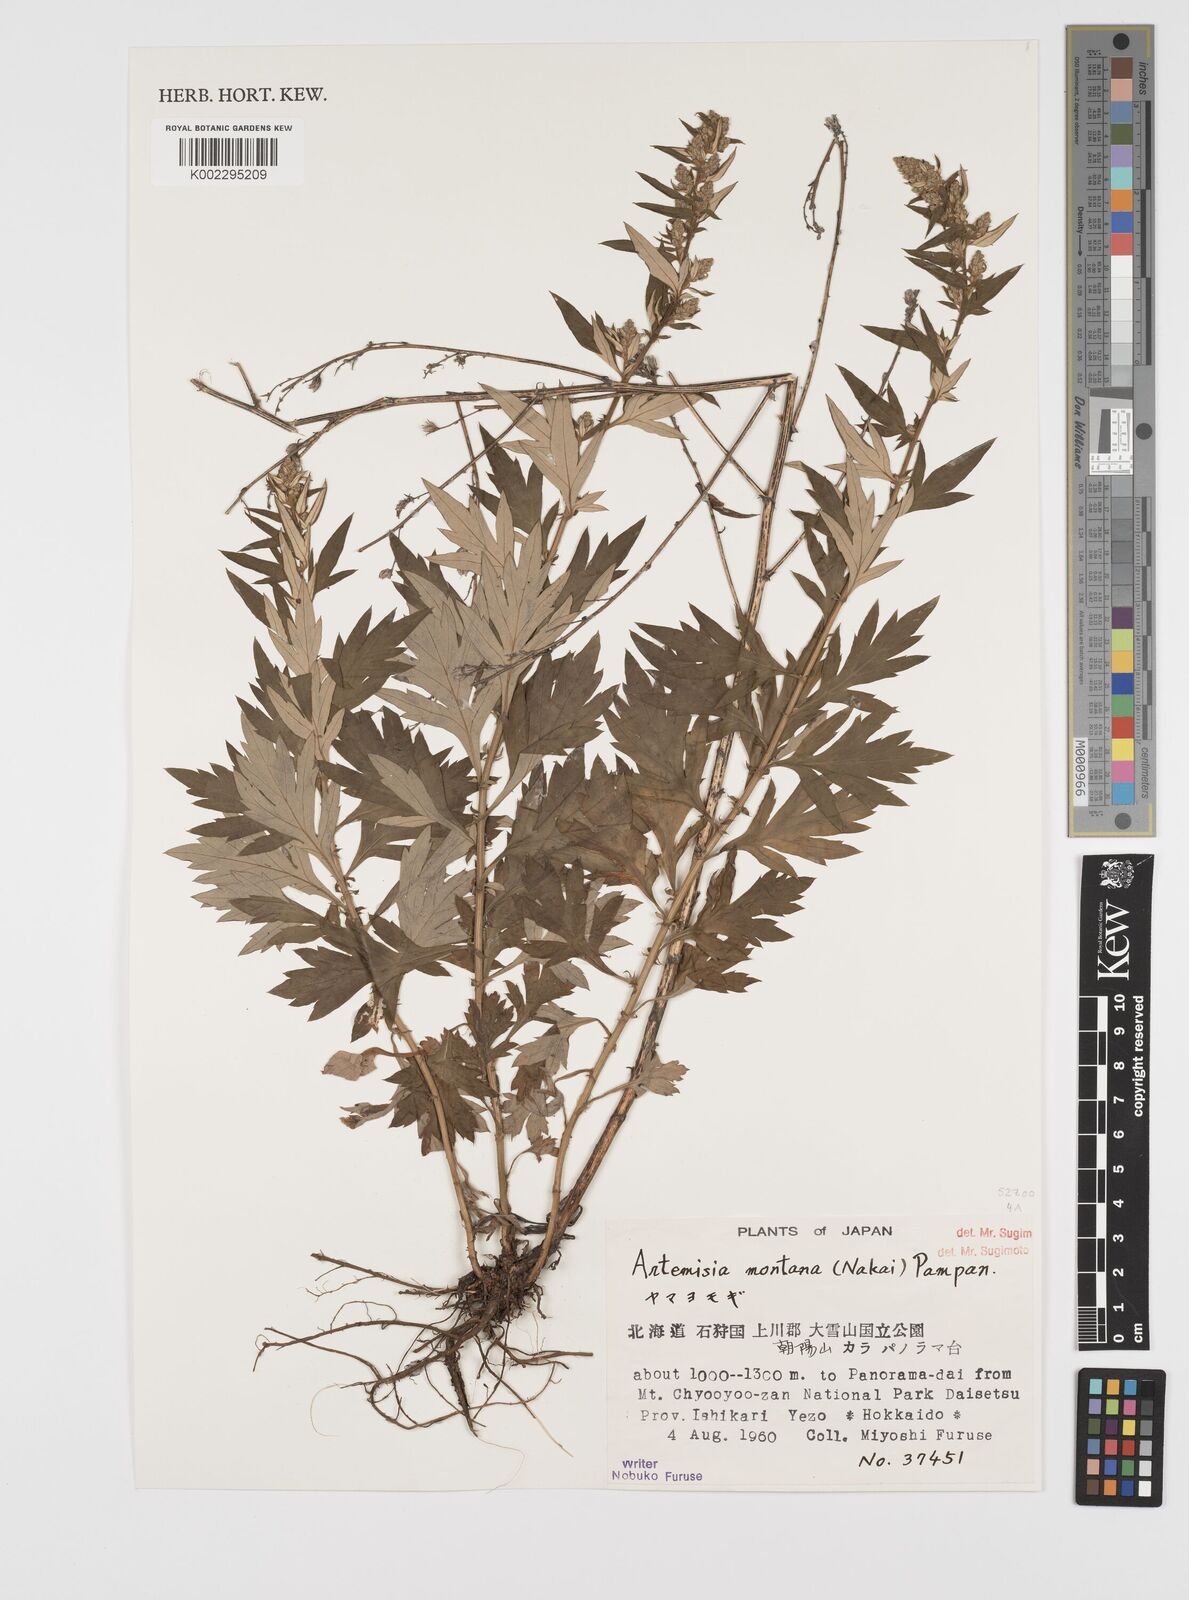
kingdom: Plantae
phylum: Tracheophyta
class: Magnoliopsida
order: Asterales
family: Asteraceae
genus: Artemisia
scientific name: Artemisia montana
